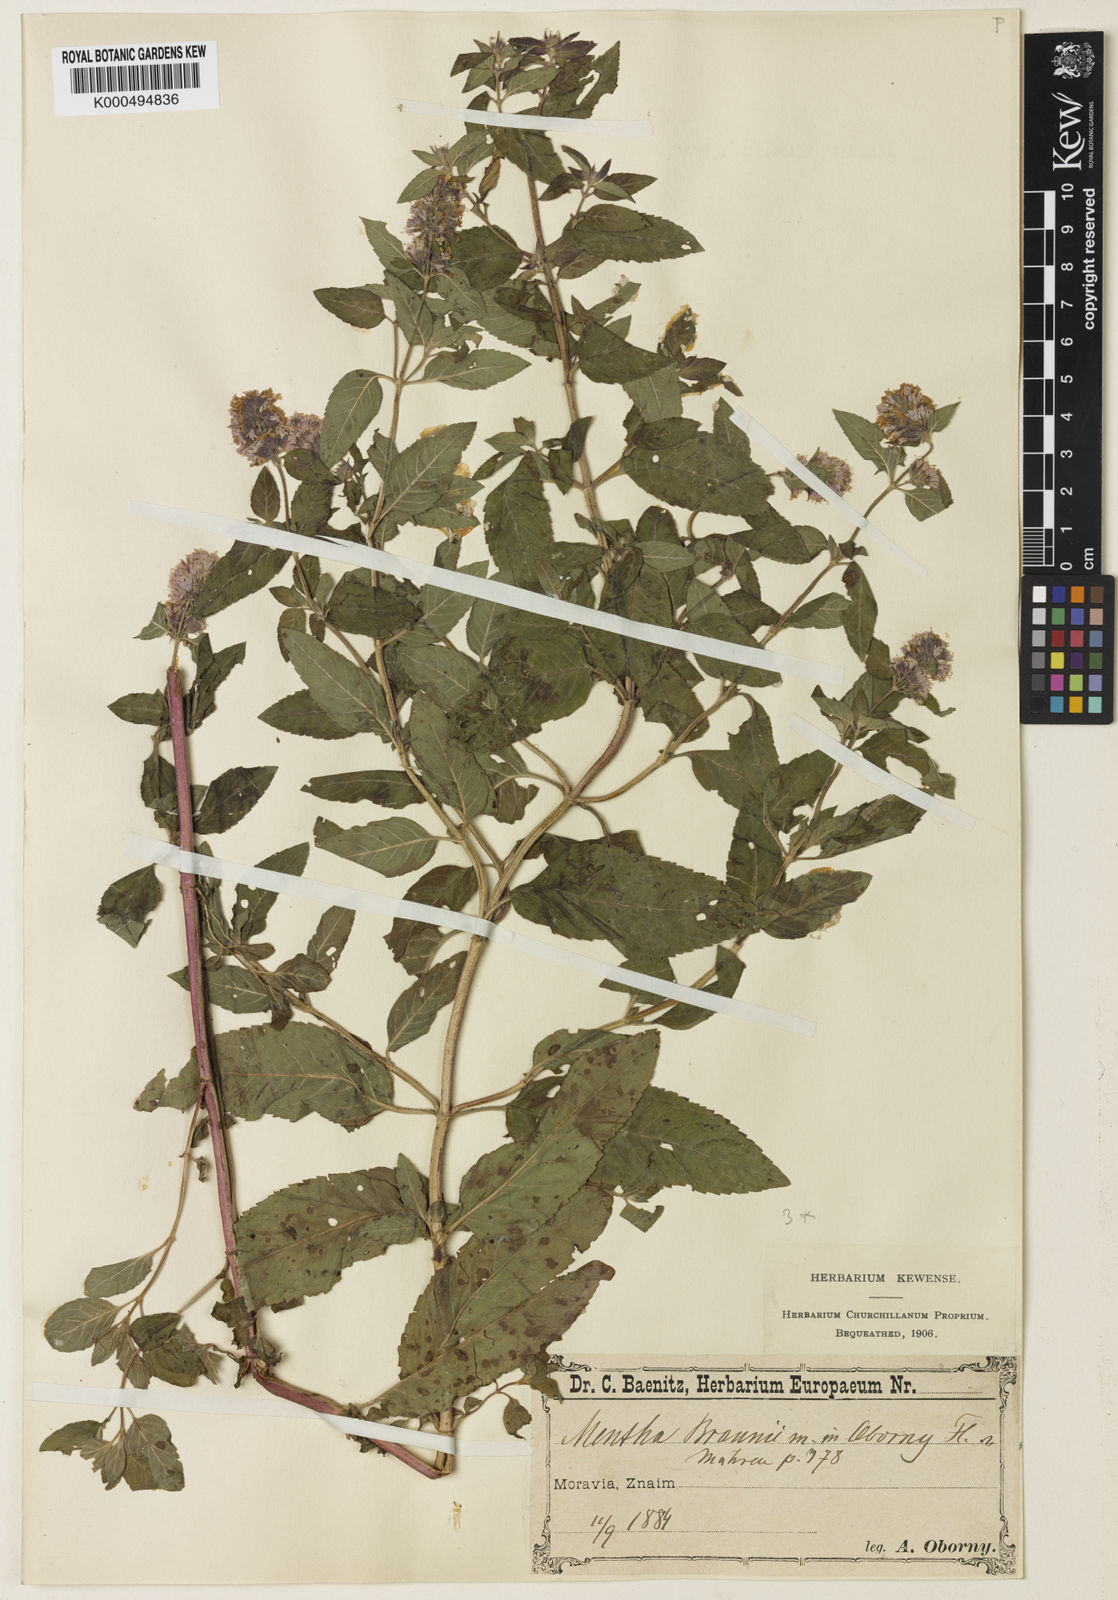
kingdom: Plantae
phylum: Tracheophyta
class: Magnoliopsida
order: Lamiales
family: Lamiaceae
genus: Mentha
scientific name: Mentha piperita
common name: Peppermint
